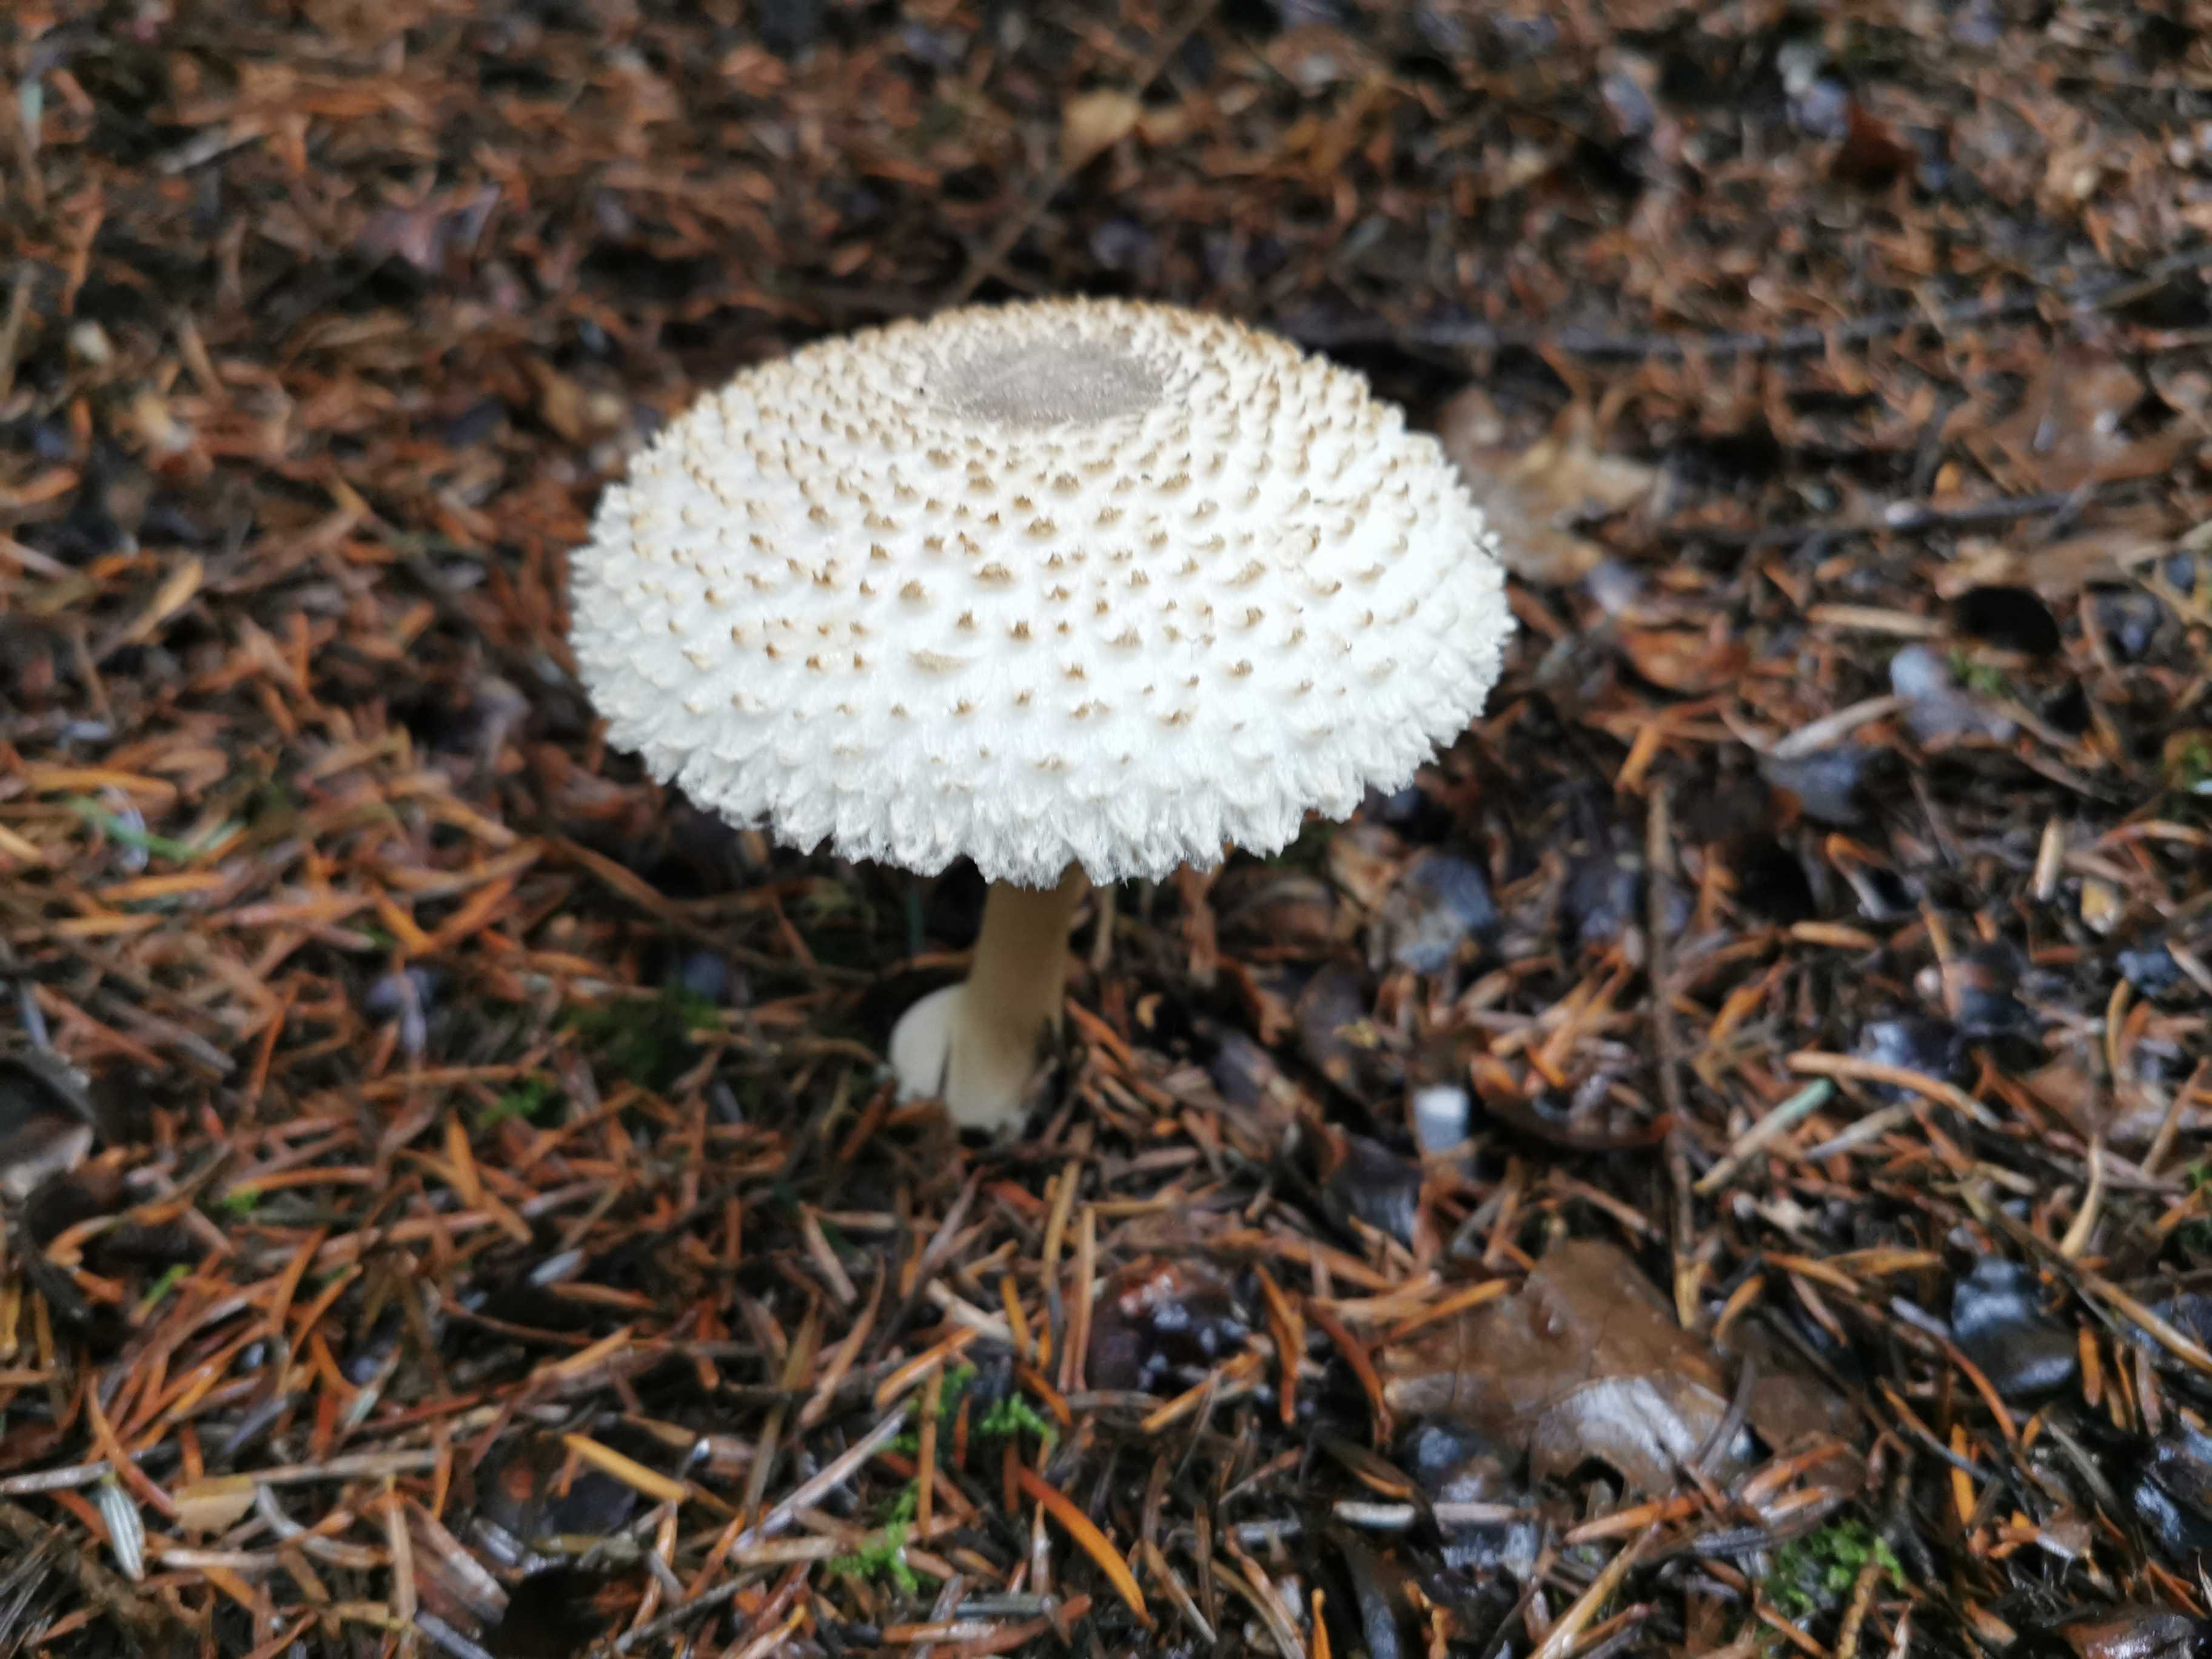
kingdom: Fungi
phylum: Basidiomycota
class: Agaricomycetes
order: Agaricales
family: Agaricaceae
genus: Leucoagaricus
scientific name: Leucoagaricus nympharum
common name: gran-silkehat
